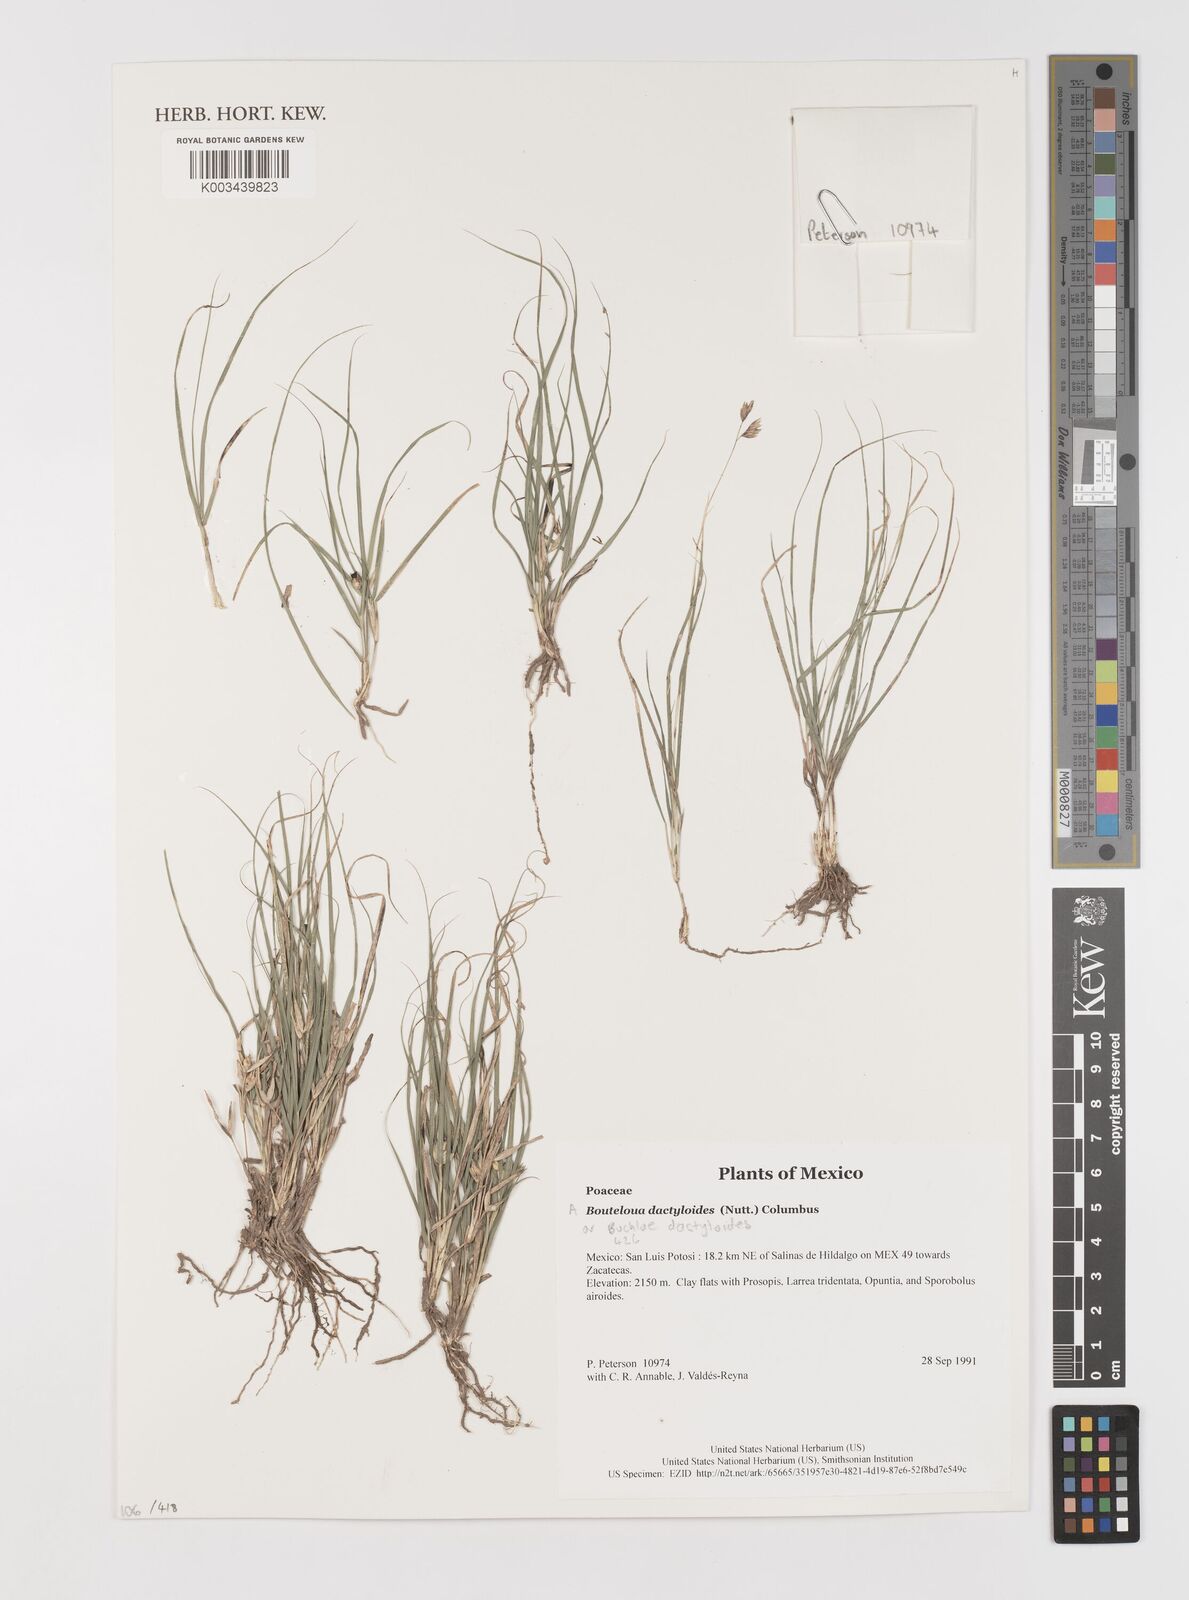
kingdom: Plantae
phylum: Tracheophyta
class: Liliopsida
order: Poales
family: Poaceae
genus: Bouteloua
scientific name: Bouteloua dactyloides
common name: Buffalo grass
